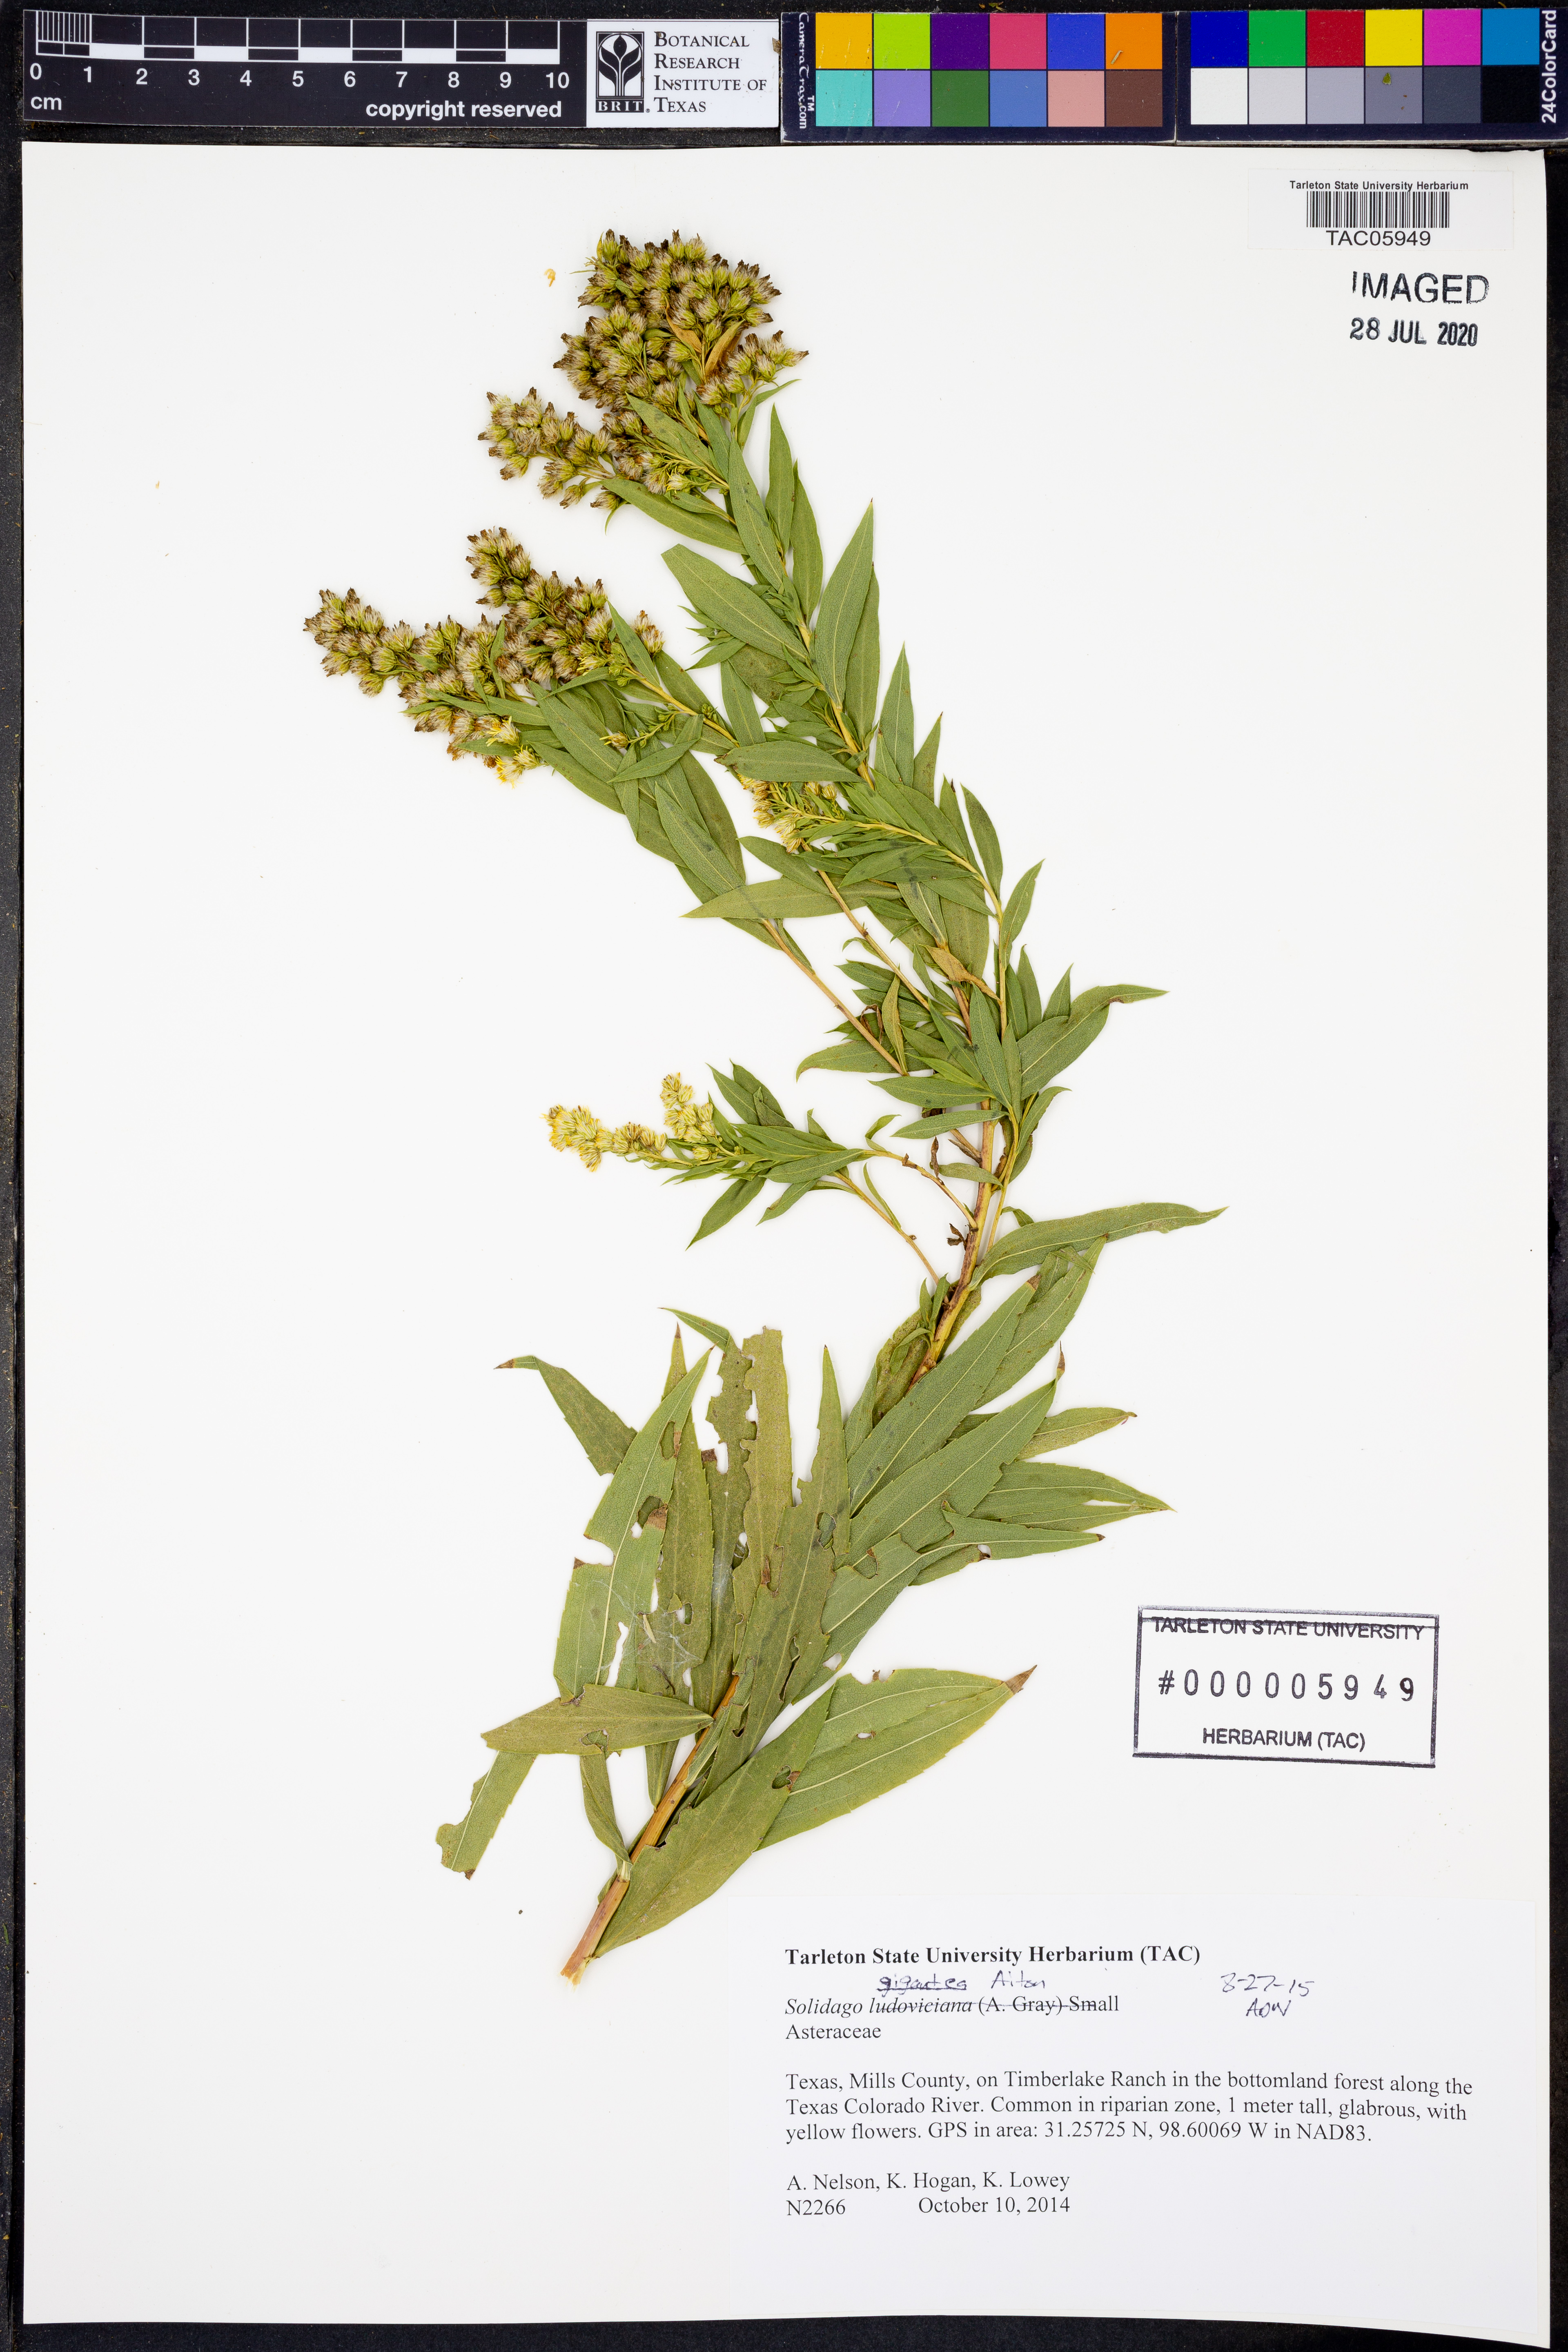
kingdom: Plantae
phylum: Tracheophyta
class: Magnoliopsida
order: Asterales
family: Asteraceae
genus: Solidago
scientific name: Solidago gigantea
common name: Giant goldenrod
